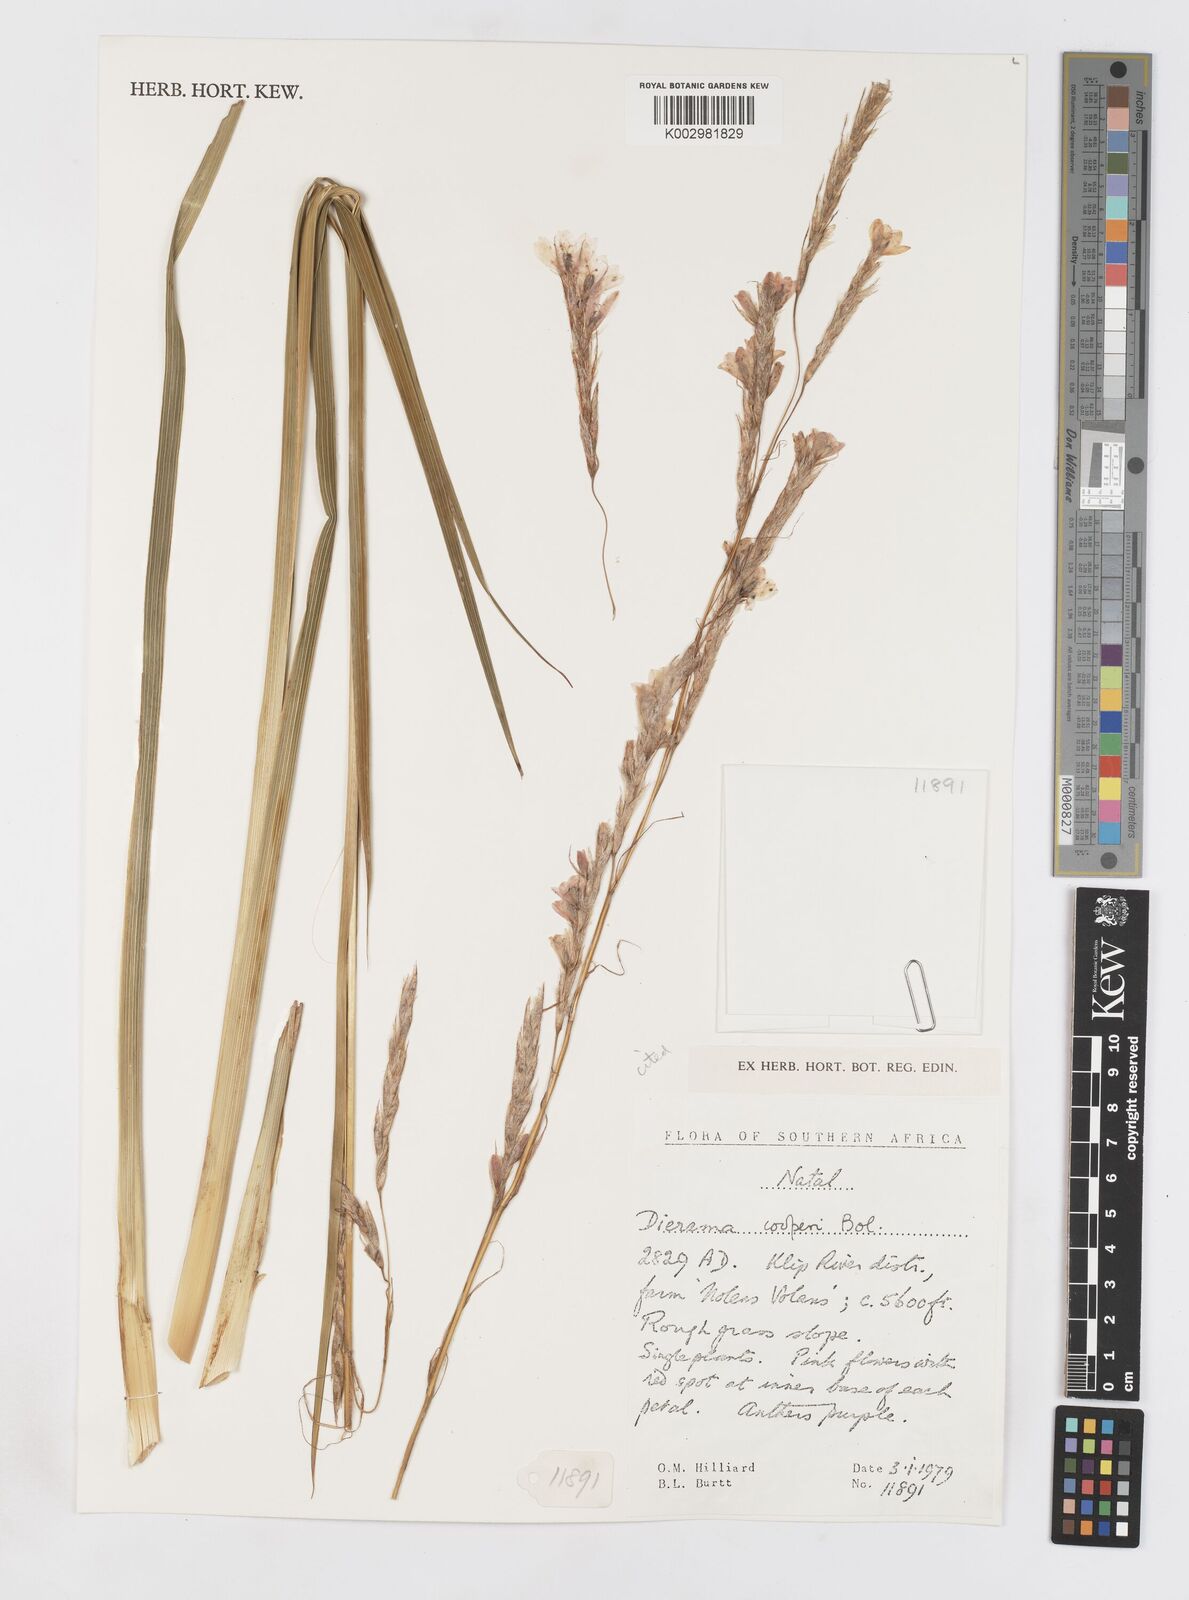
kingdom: Plantae
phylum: Tracheophyta
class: Liliopsida
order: Asparagales
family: Iridaceae
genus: Dierama
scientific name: Dierama cooperi
